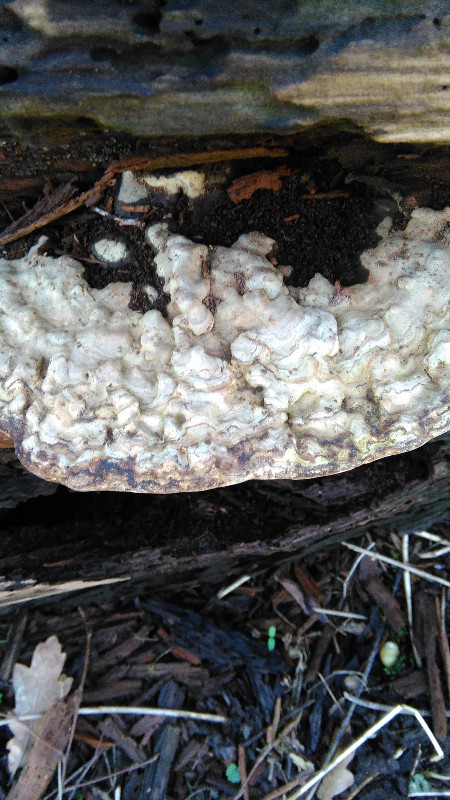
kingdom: Fungi
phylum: Basidiomycota
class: Agaricomycetes
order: Polyporales
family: Polyporaceae
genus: Ganoderma
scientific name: Ganoderma applanatum
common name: flad lakporesvamp
